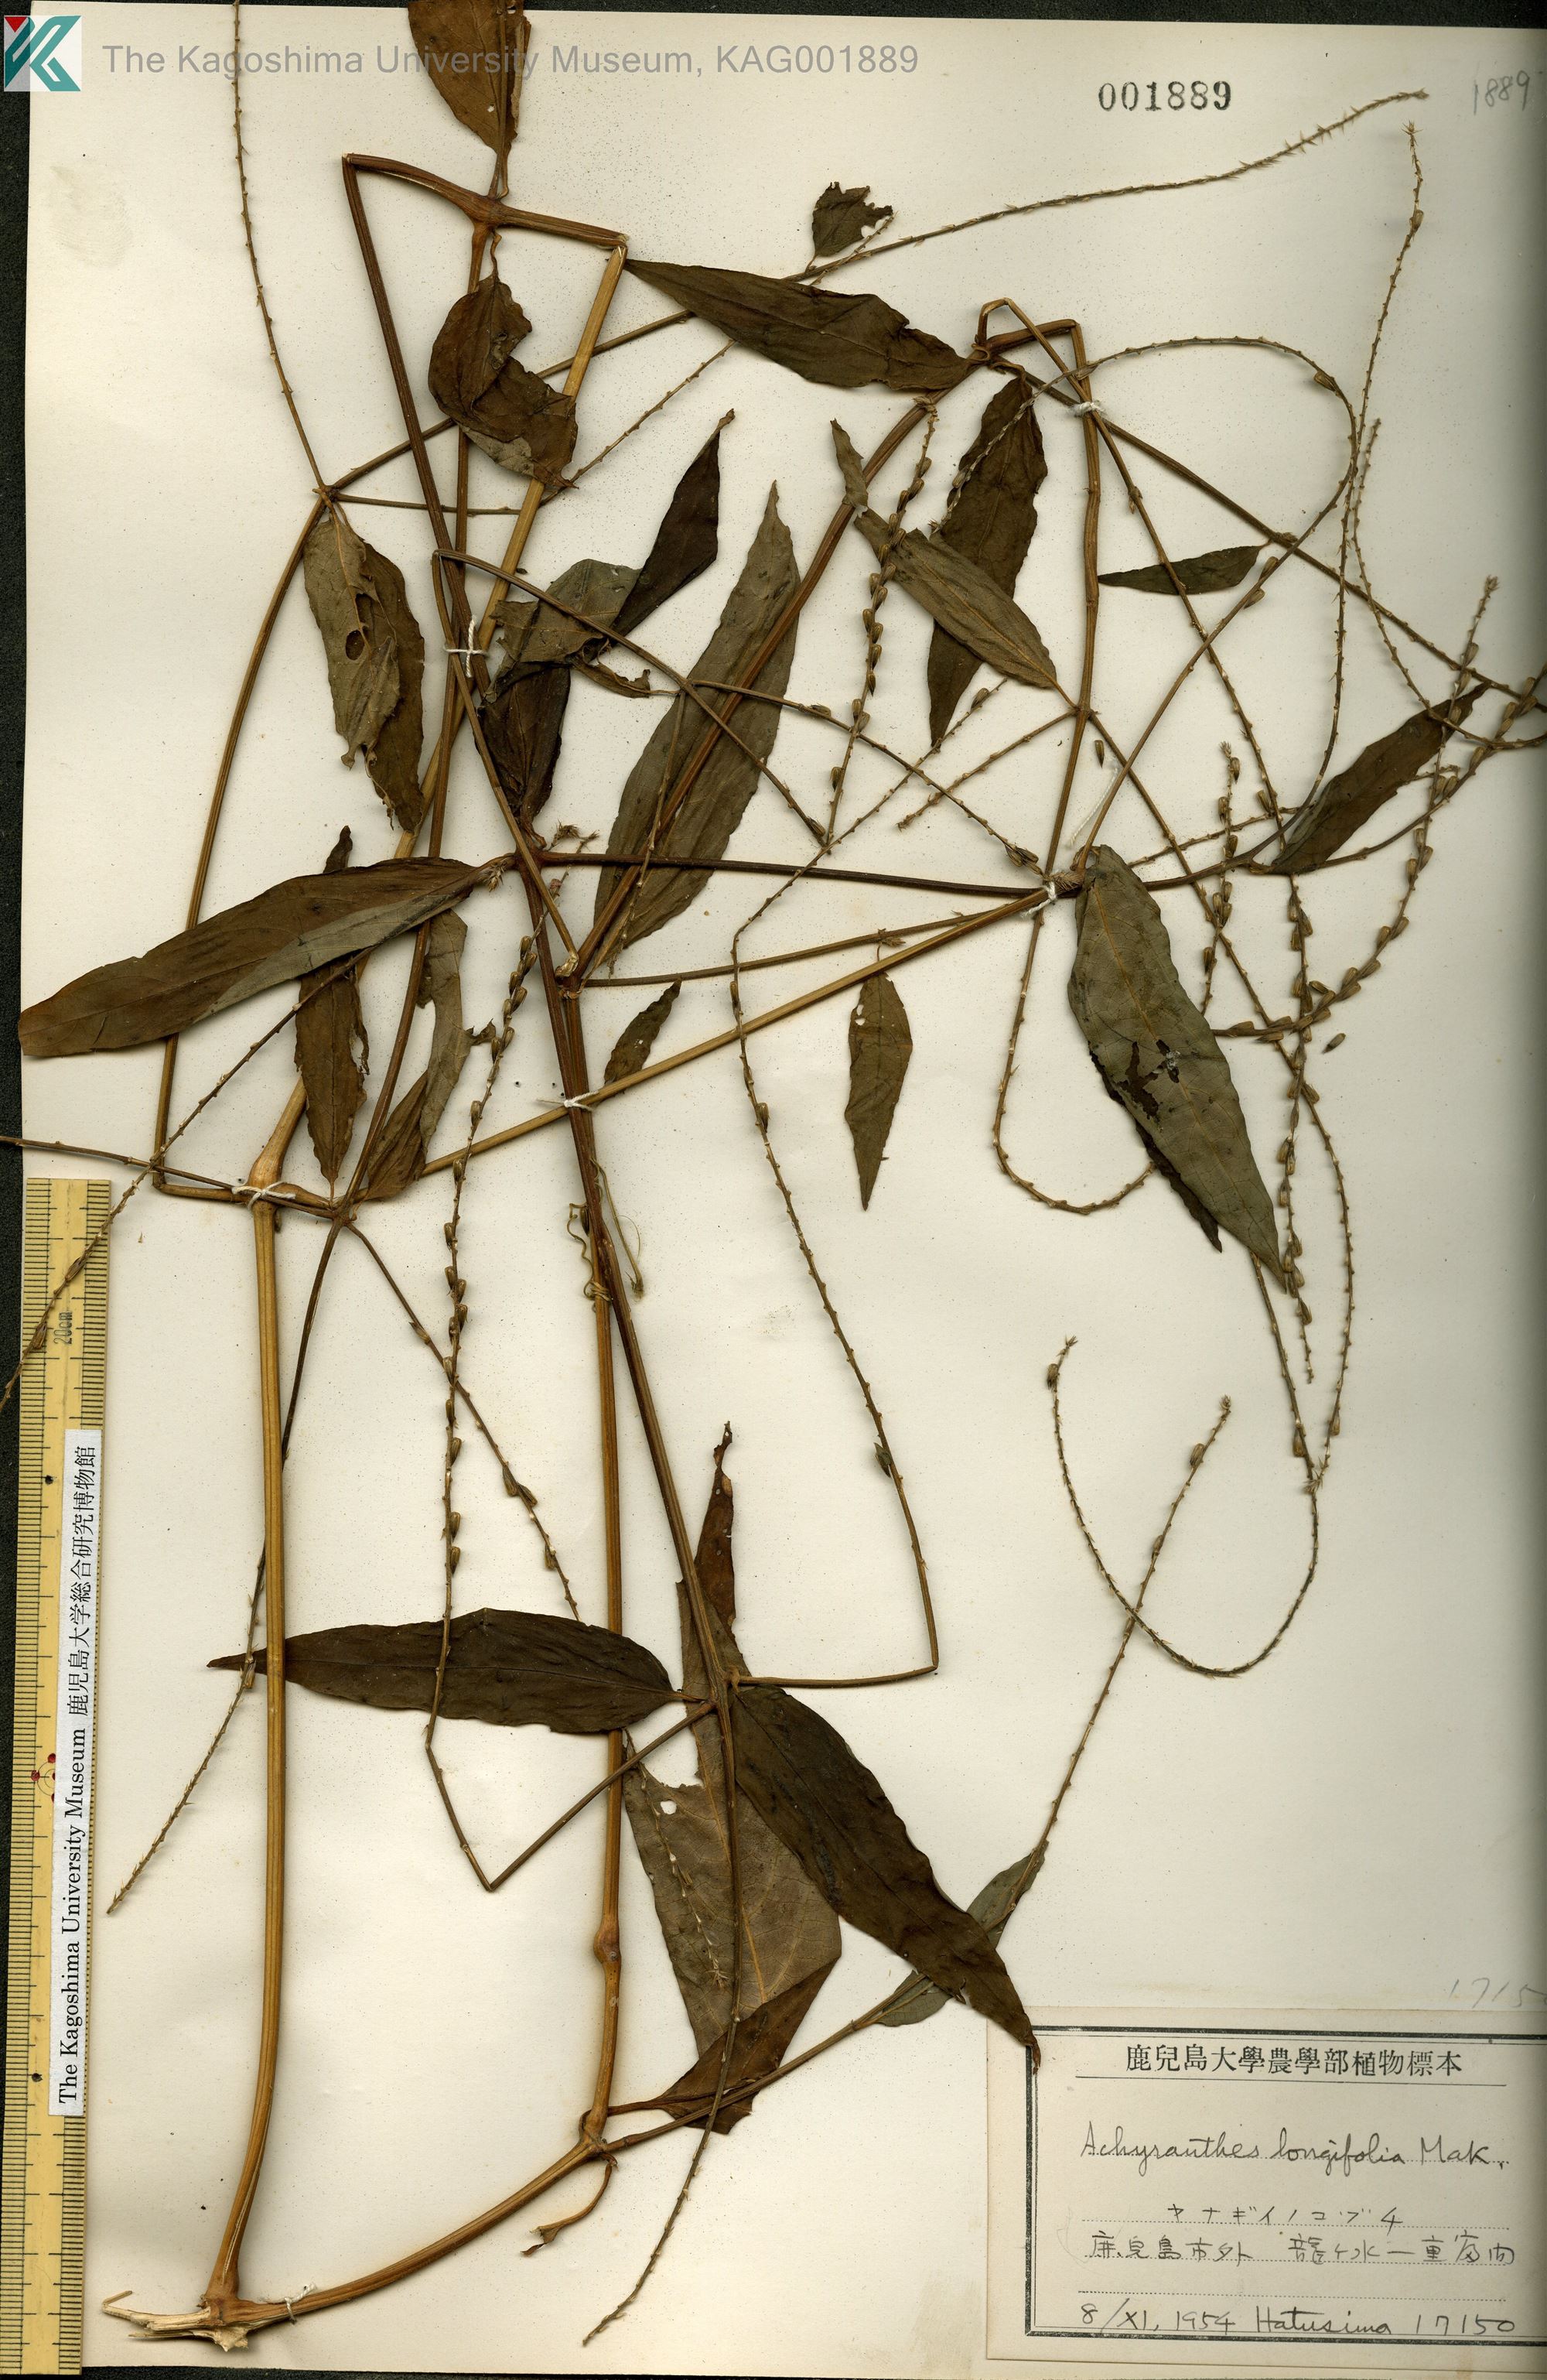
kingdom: Plantae
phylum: Tracheophyta
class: Magnoliopsida
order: Caryophyllales
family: Amaranthaceae
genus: Achyranthes
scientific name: Achyranthes bidentata
